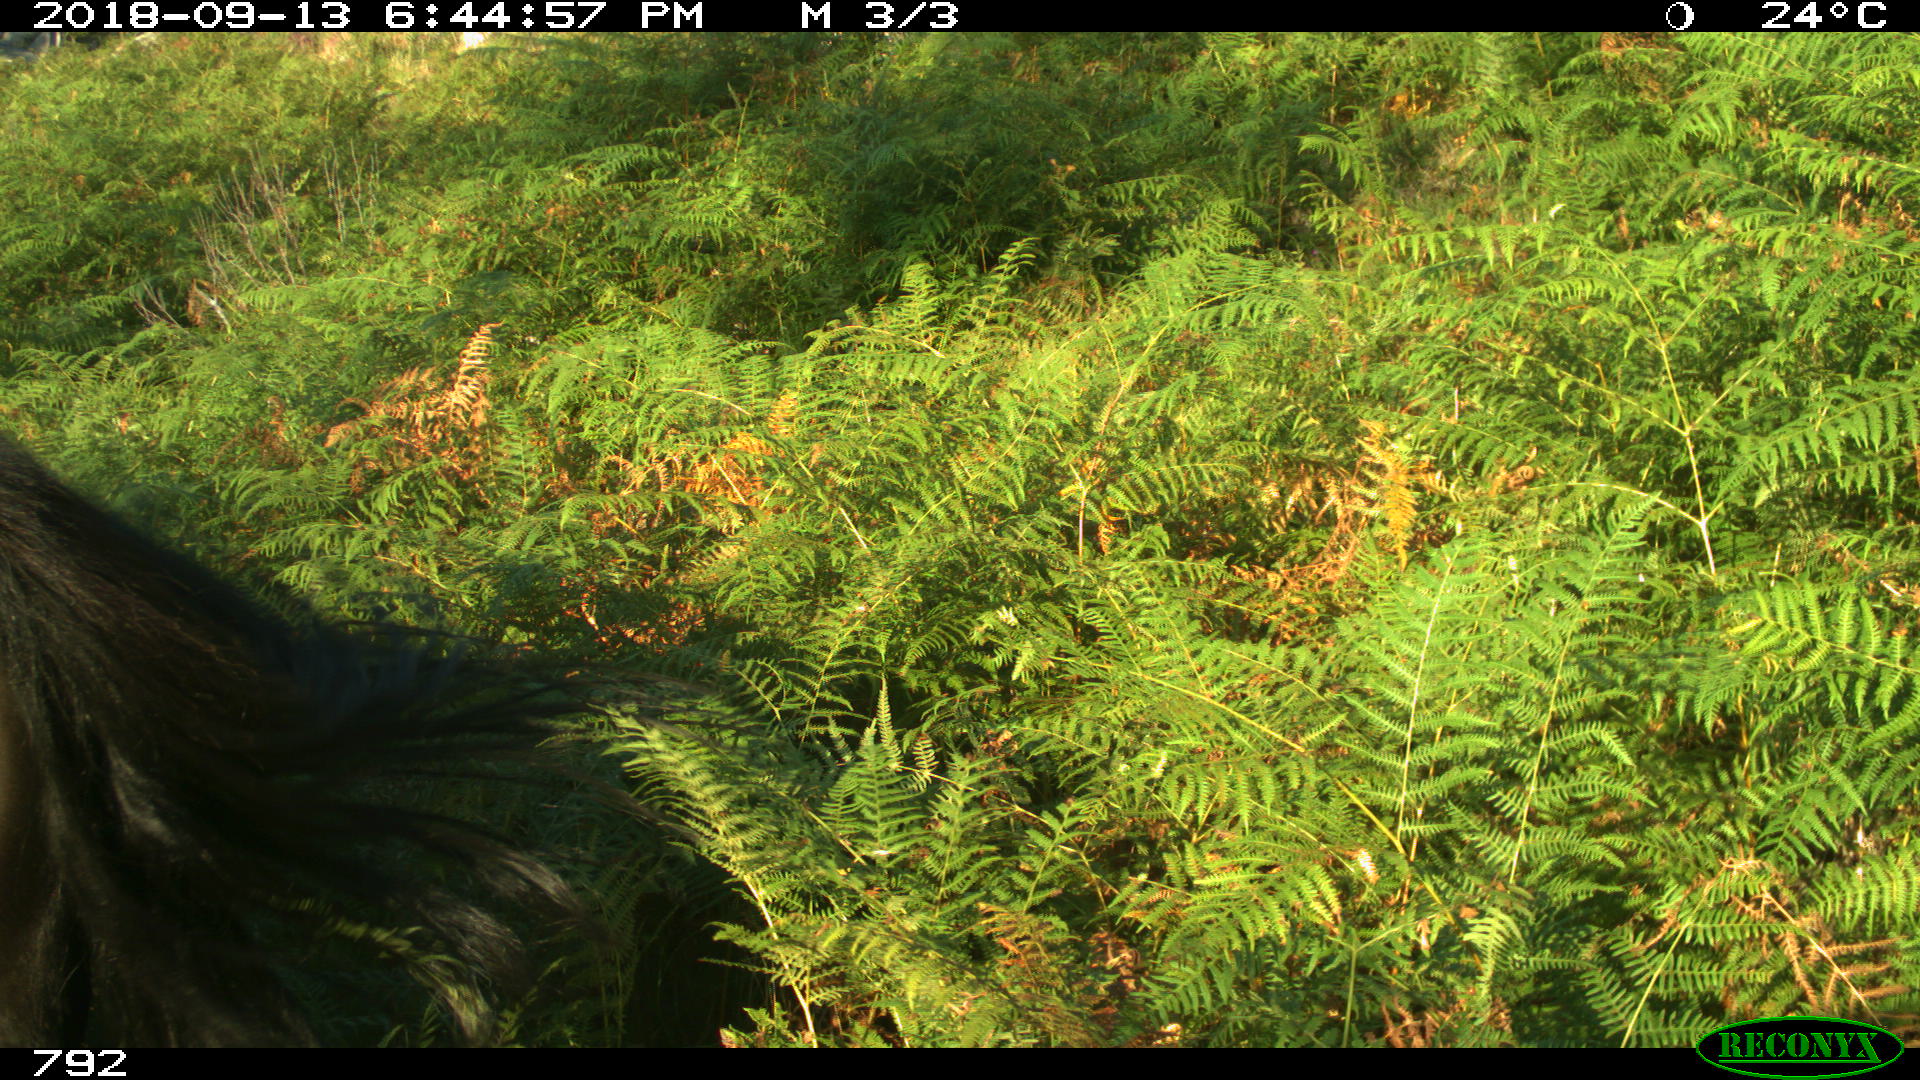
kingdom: Animalia
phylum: Chordata
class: Mammalia
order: Perissodactyla
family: Equidae
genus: Equus
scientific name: Equus caballus
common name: Horse
